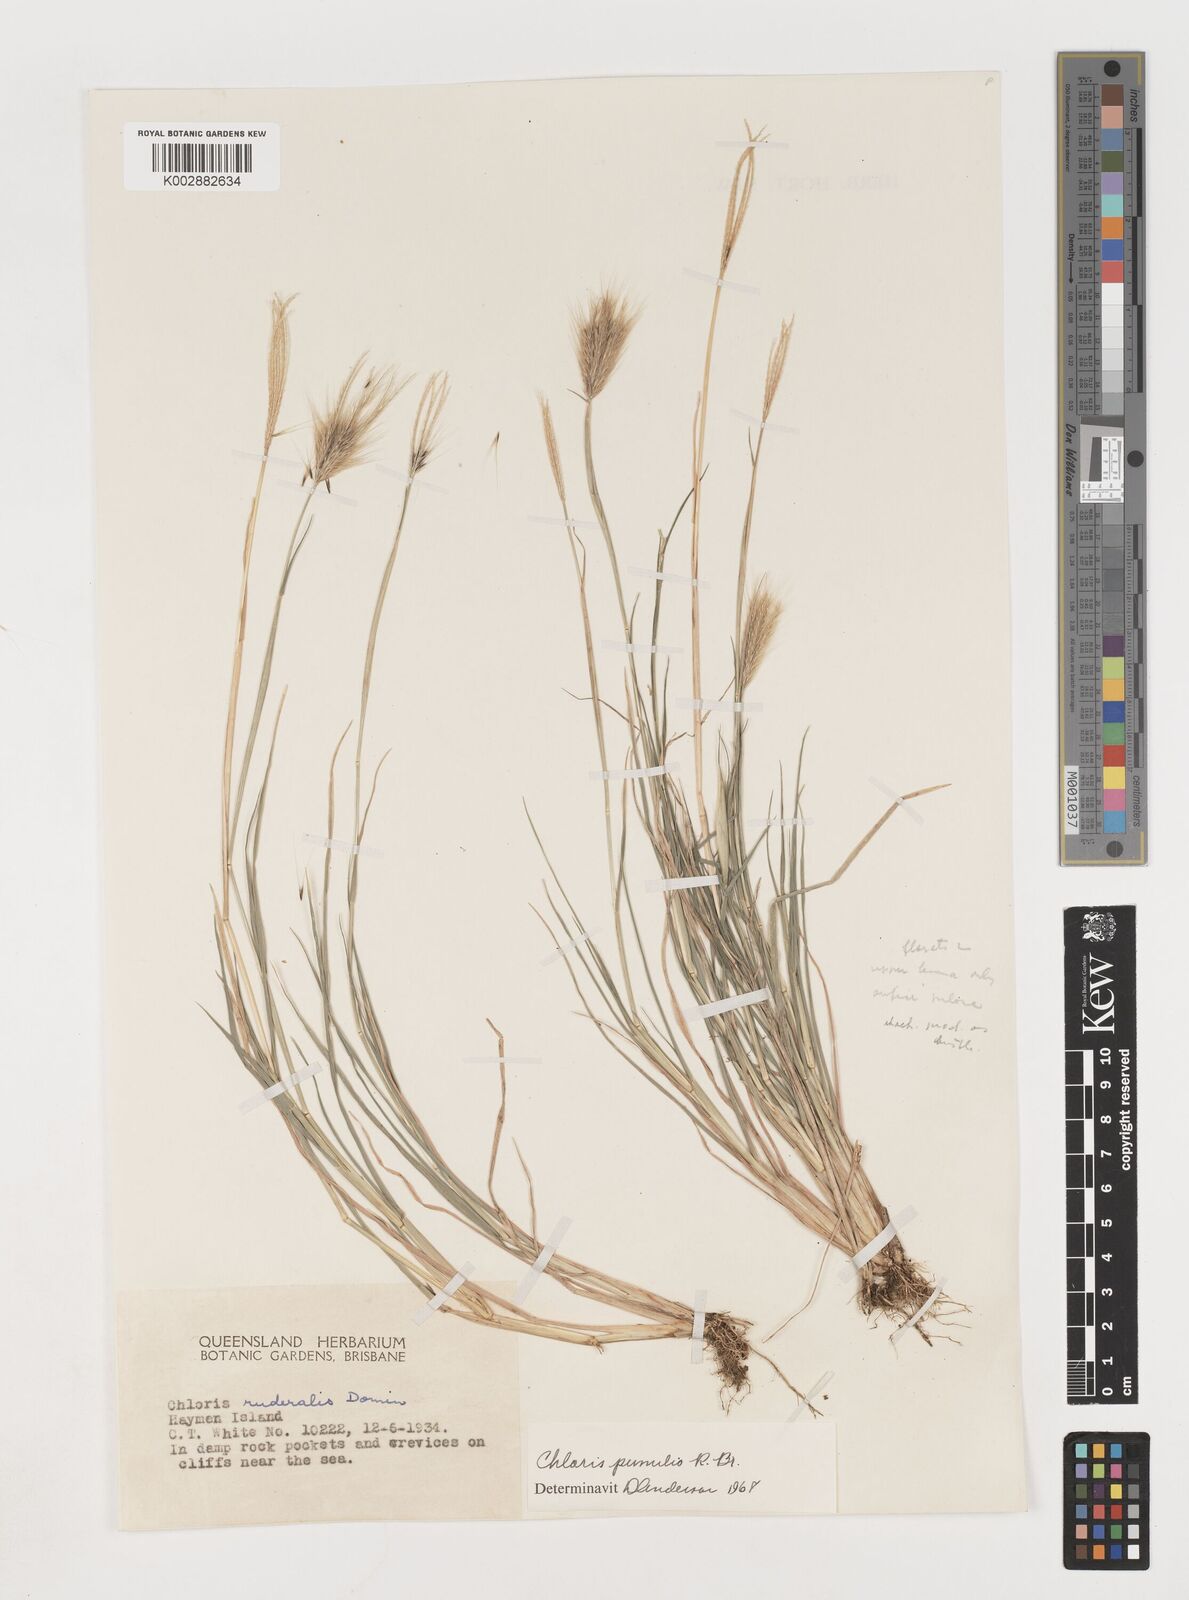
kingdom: Plantae
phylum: Tracheophyta
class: Liliopsida
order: Poales
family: Poaceae
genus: Chloris
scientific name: Chloris pumilio
